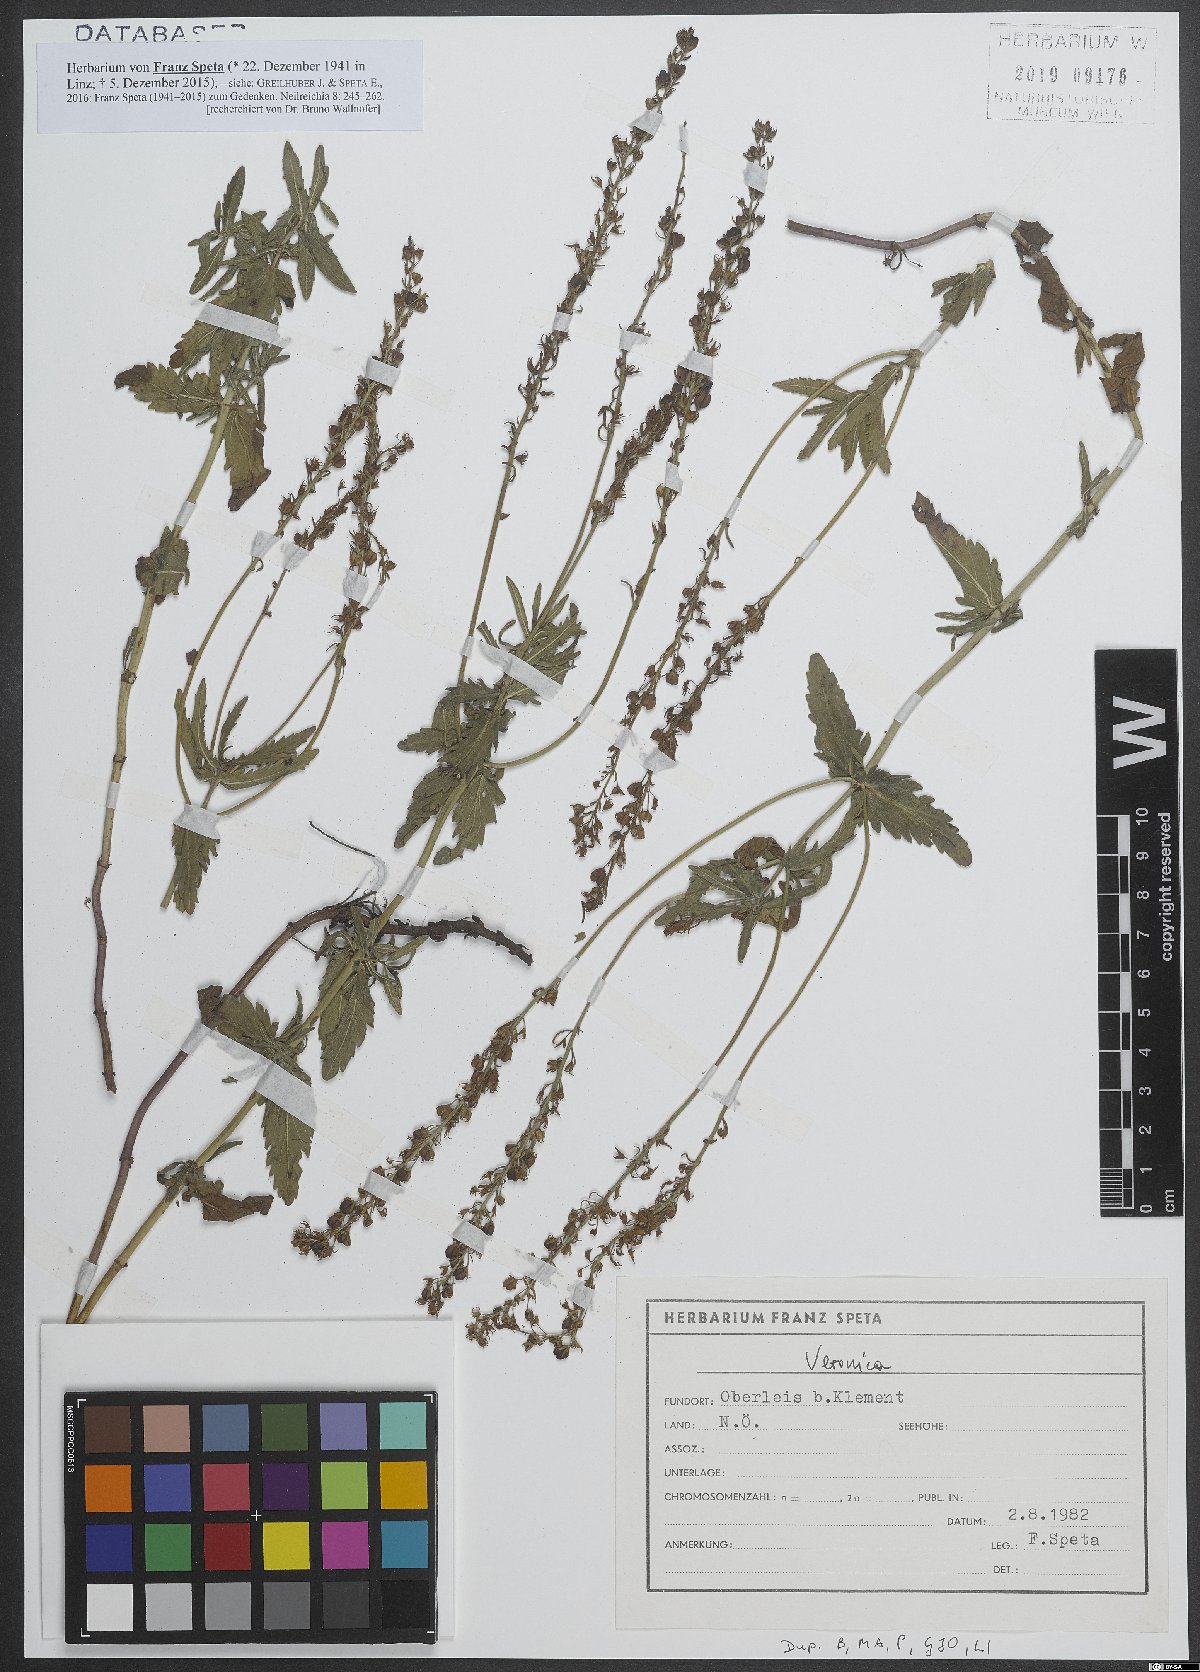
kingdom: Plantae
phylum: Tracheophyta
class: Magnoliopsida
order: Lamiales
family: Plantaginaceae
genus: Veronica
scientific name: Veronica
